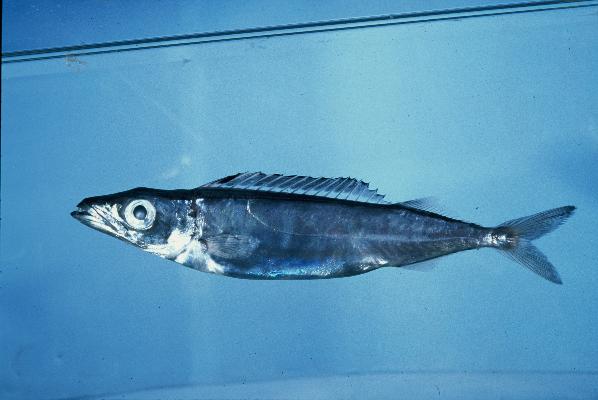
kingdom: Animalia
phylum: Chordata
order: Perciformes
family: Gempylidae
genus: Rexea
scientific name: Rexea prometheoides
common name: Royal escolar
